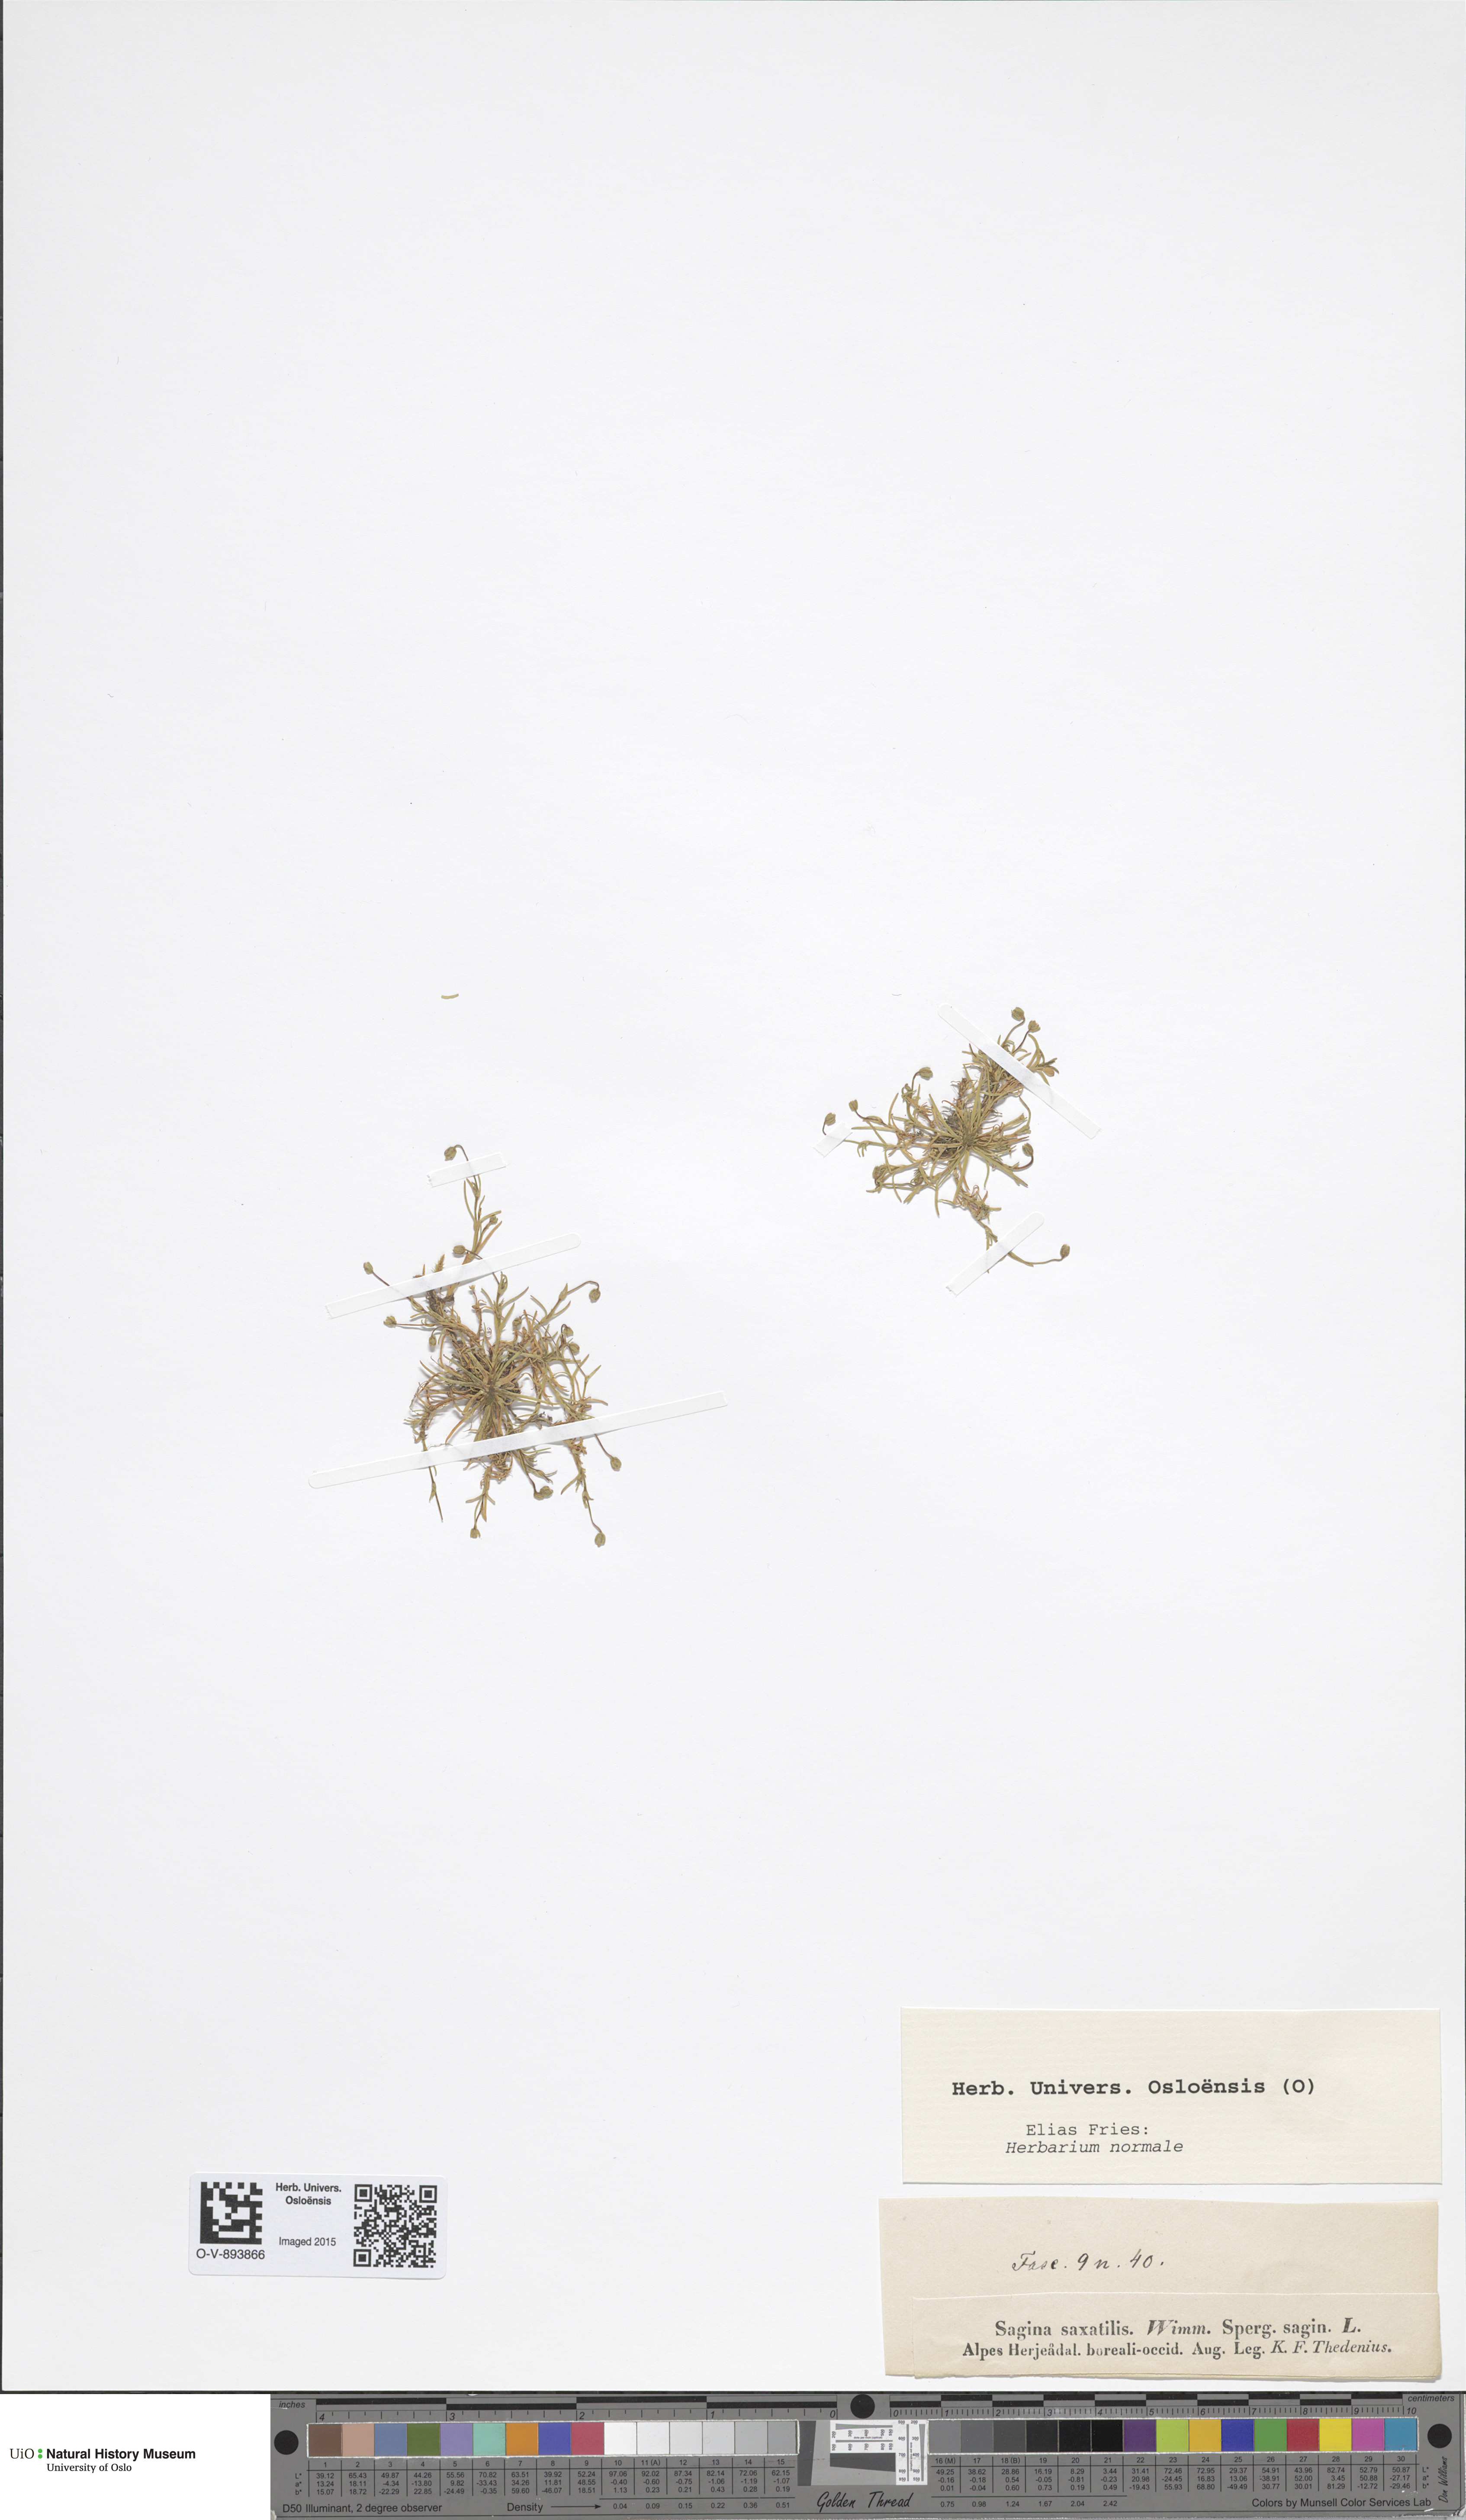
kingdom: Plantae
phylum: Tracheophyta
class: Magnoliopsida
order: Caryophyllales
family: Caryophyllaceae
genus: Sagina
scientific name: Sagina saginoides
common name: Alpine pearlwort
